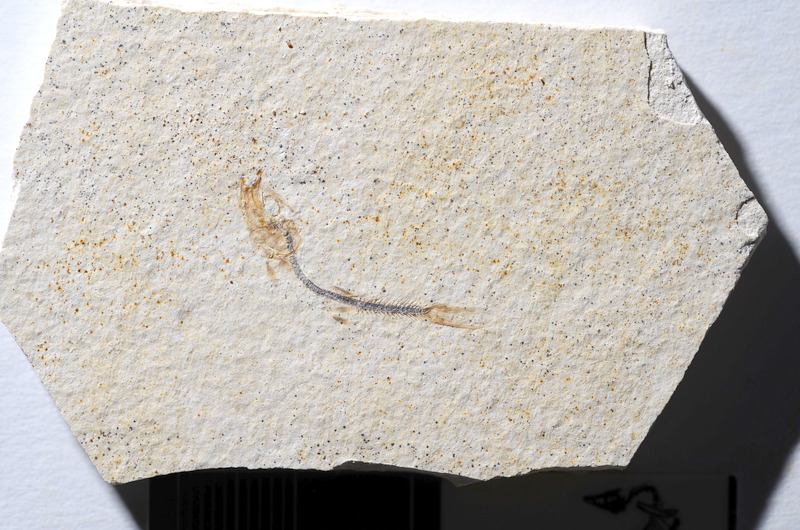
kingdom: Animalia
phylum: Chordata
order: Salmoniformes
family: Orthogonikleithridae
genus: Orthogonikleithrus
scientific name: Orthogonikleithrus hoelli
